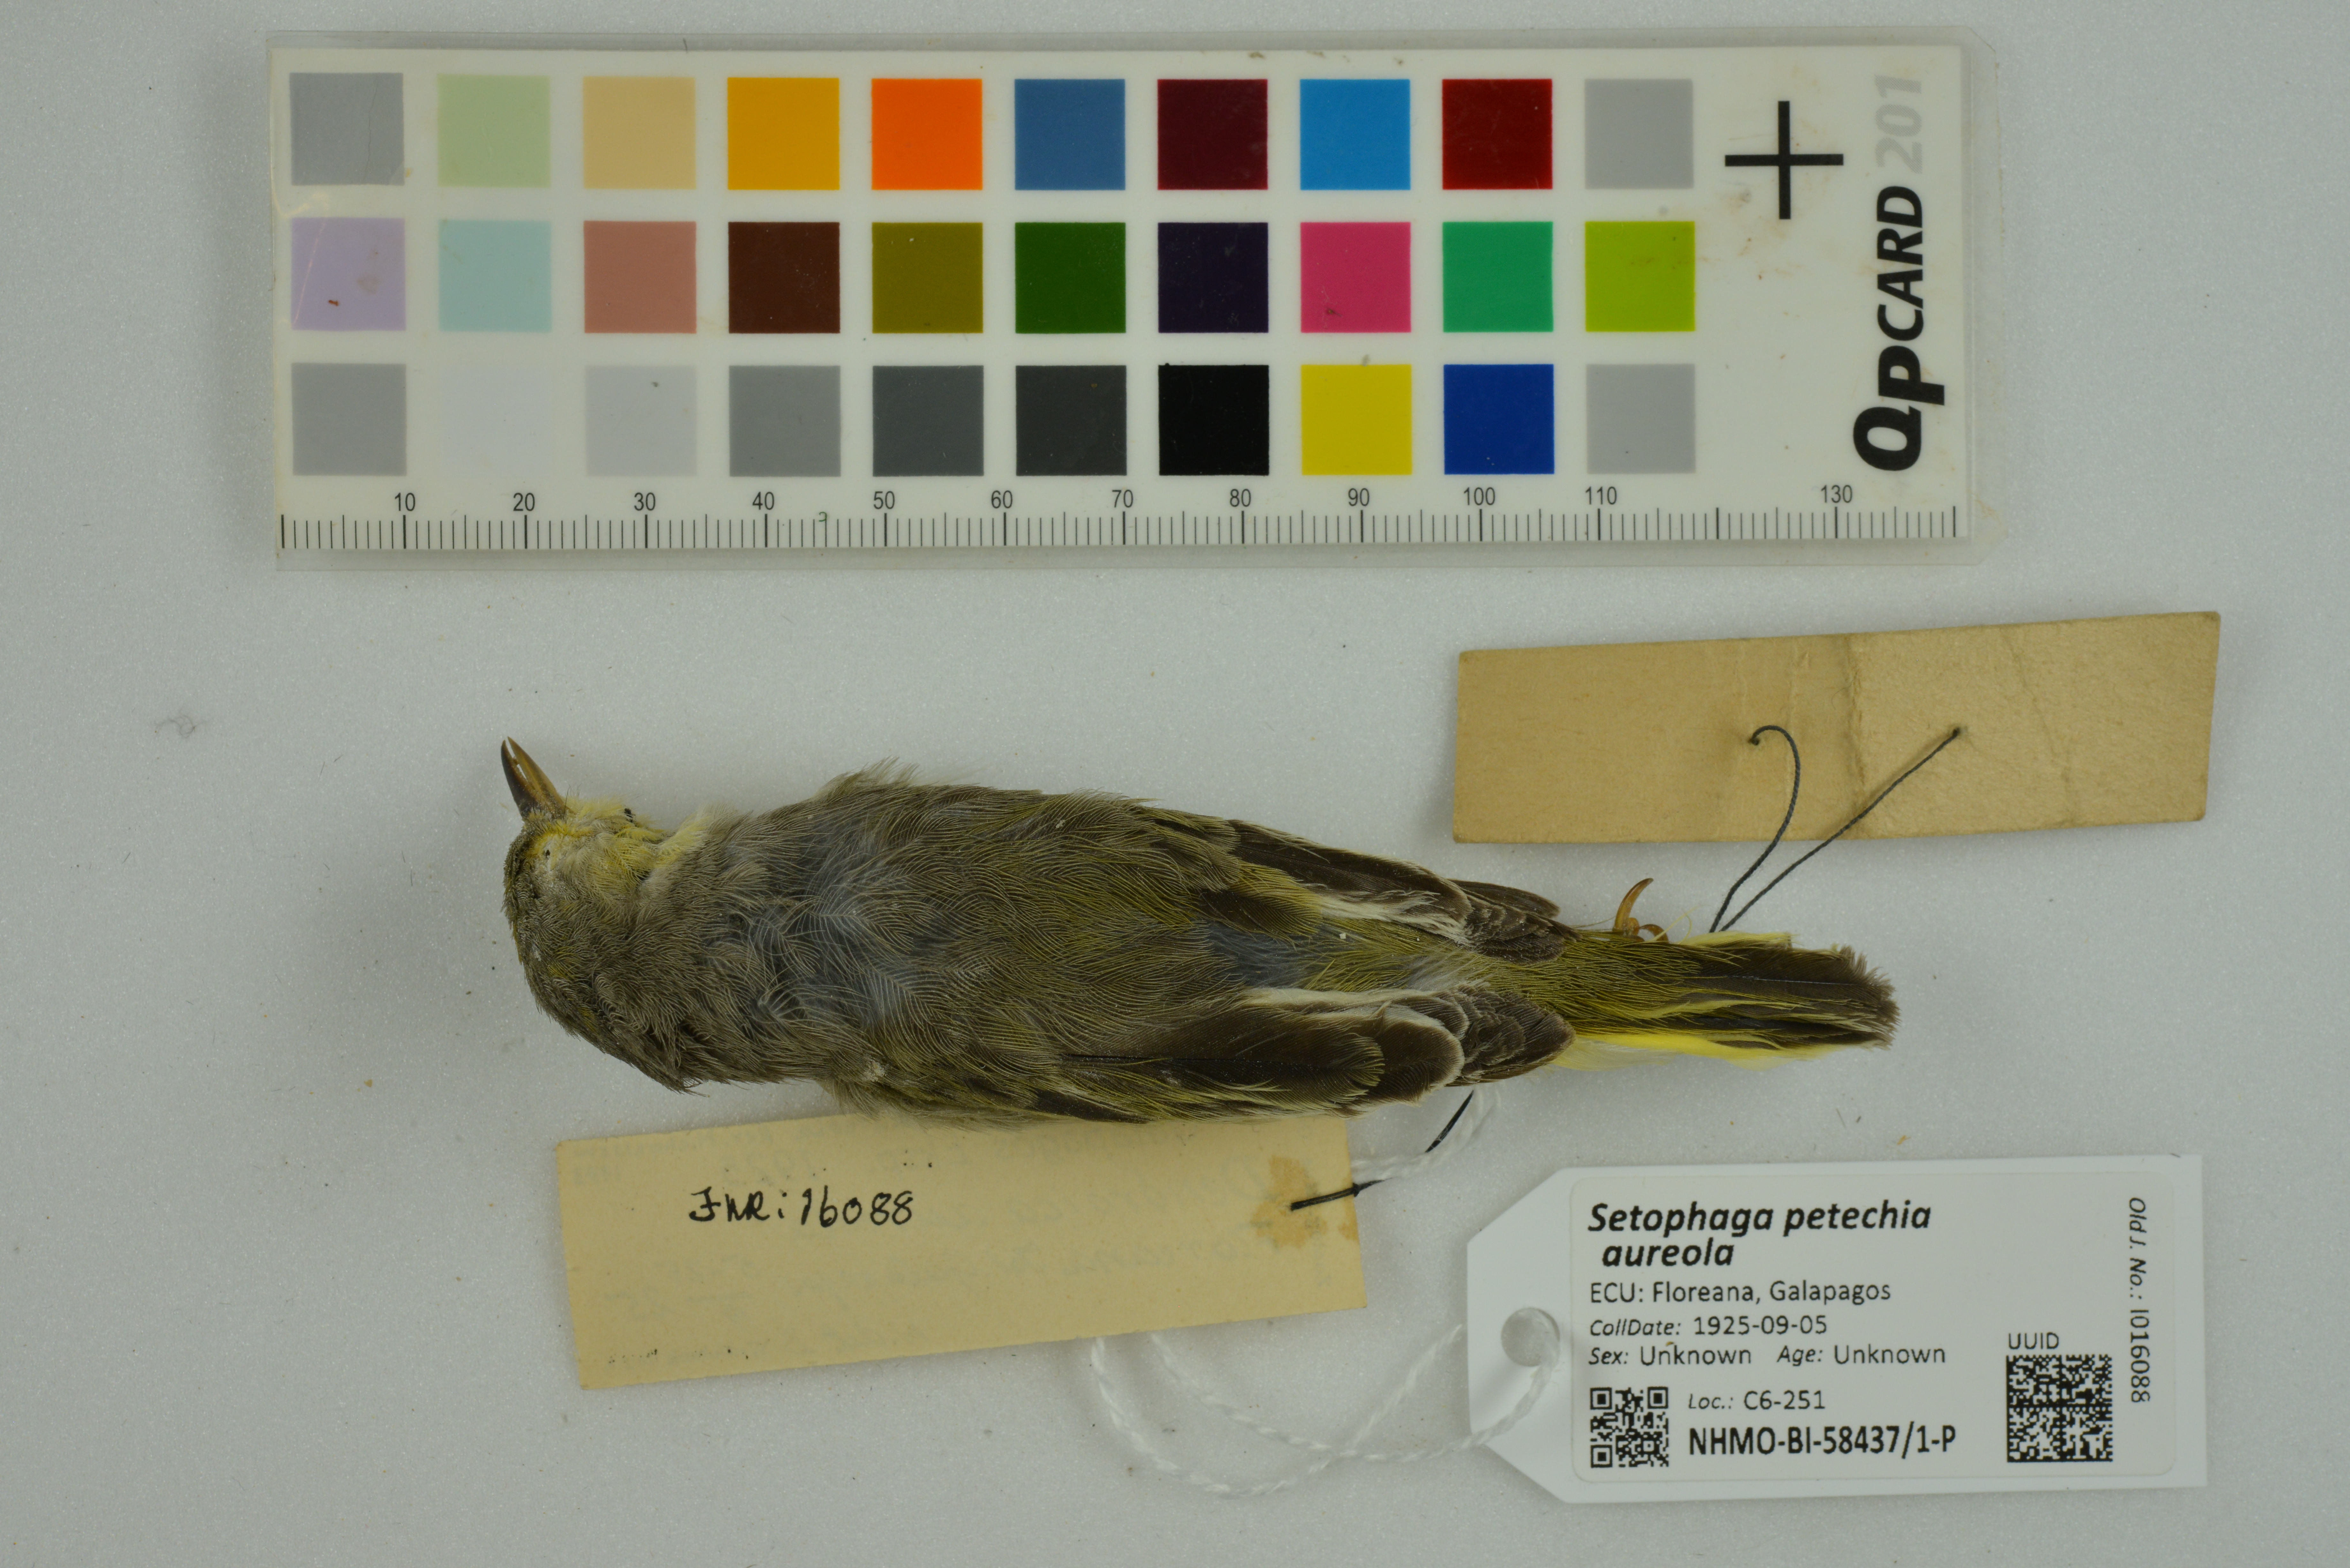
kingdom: Animalia
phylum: Chordata
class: Aves
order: Passeriformes
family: Parulidae
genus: Setophaga
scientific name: Setophaga petechia
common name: Yellow warbler
